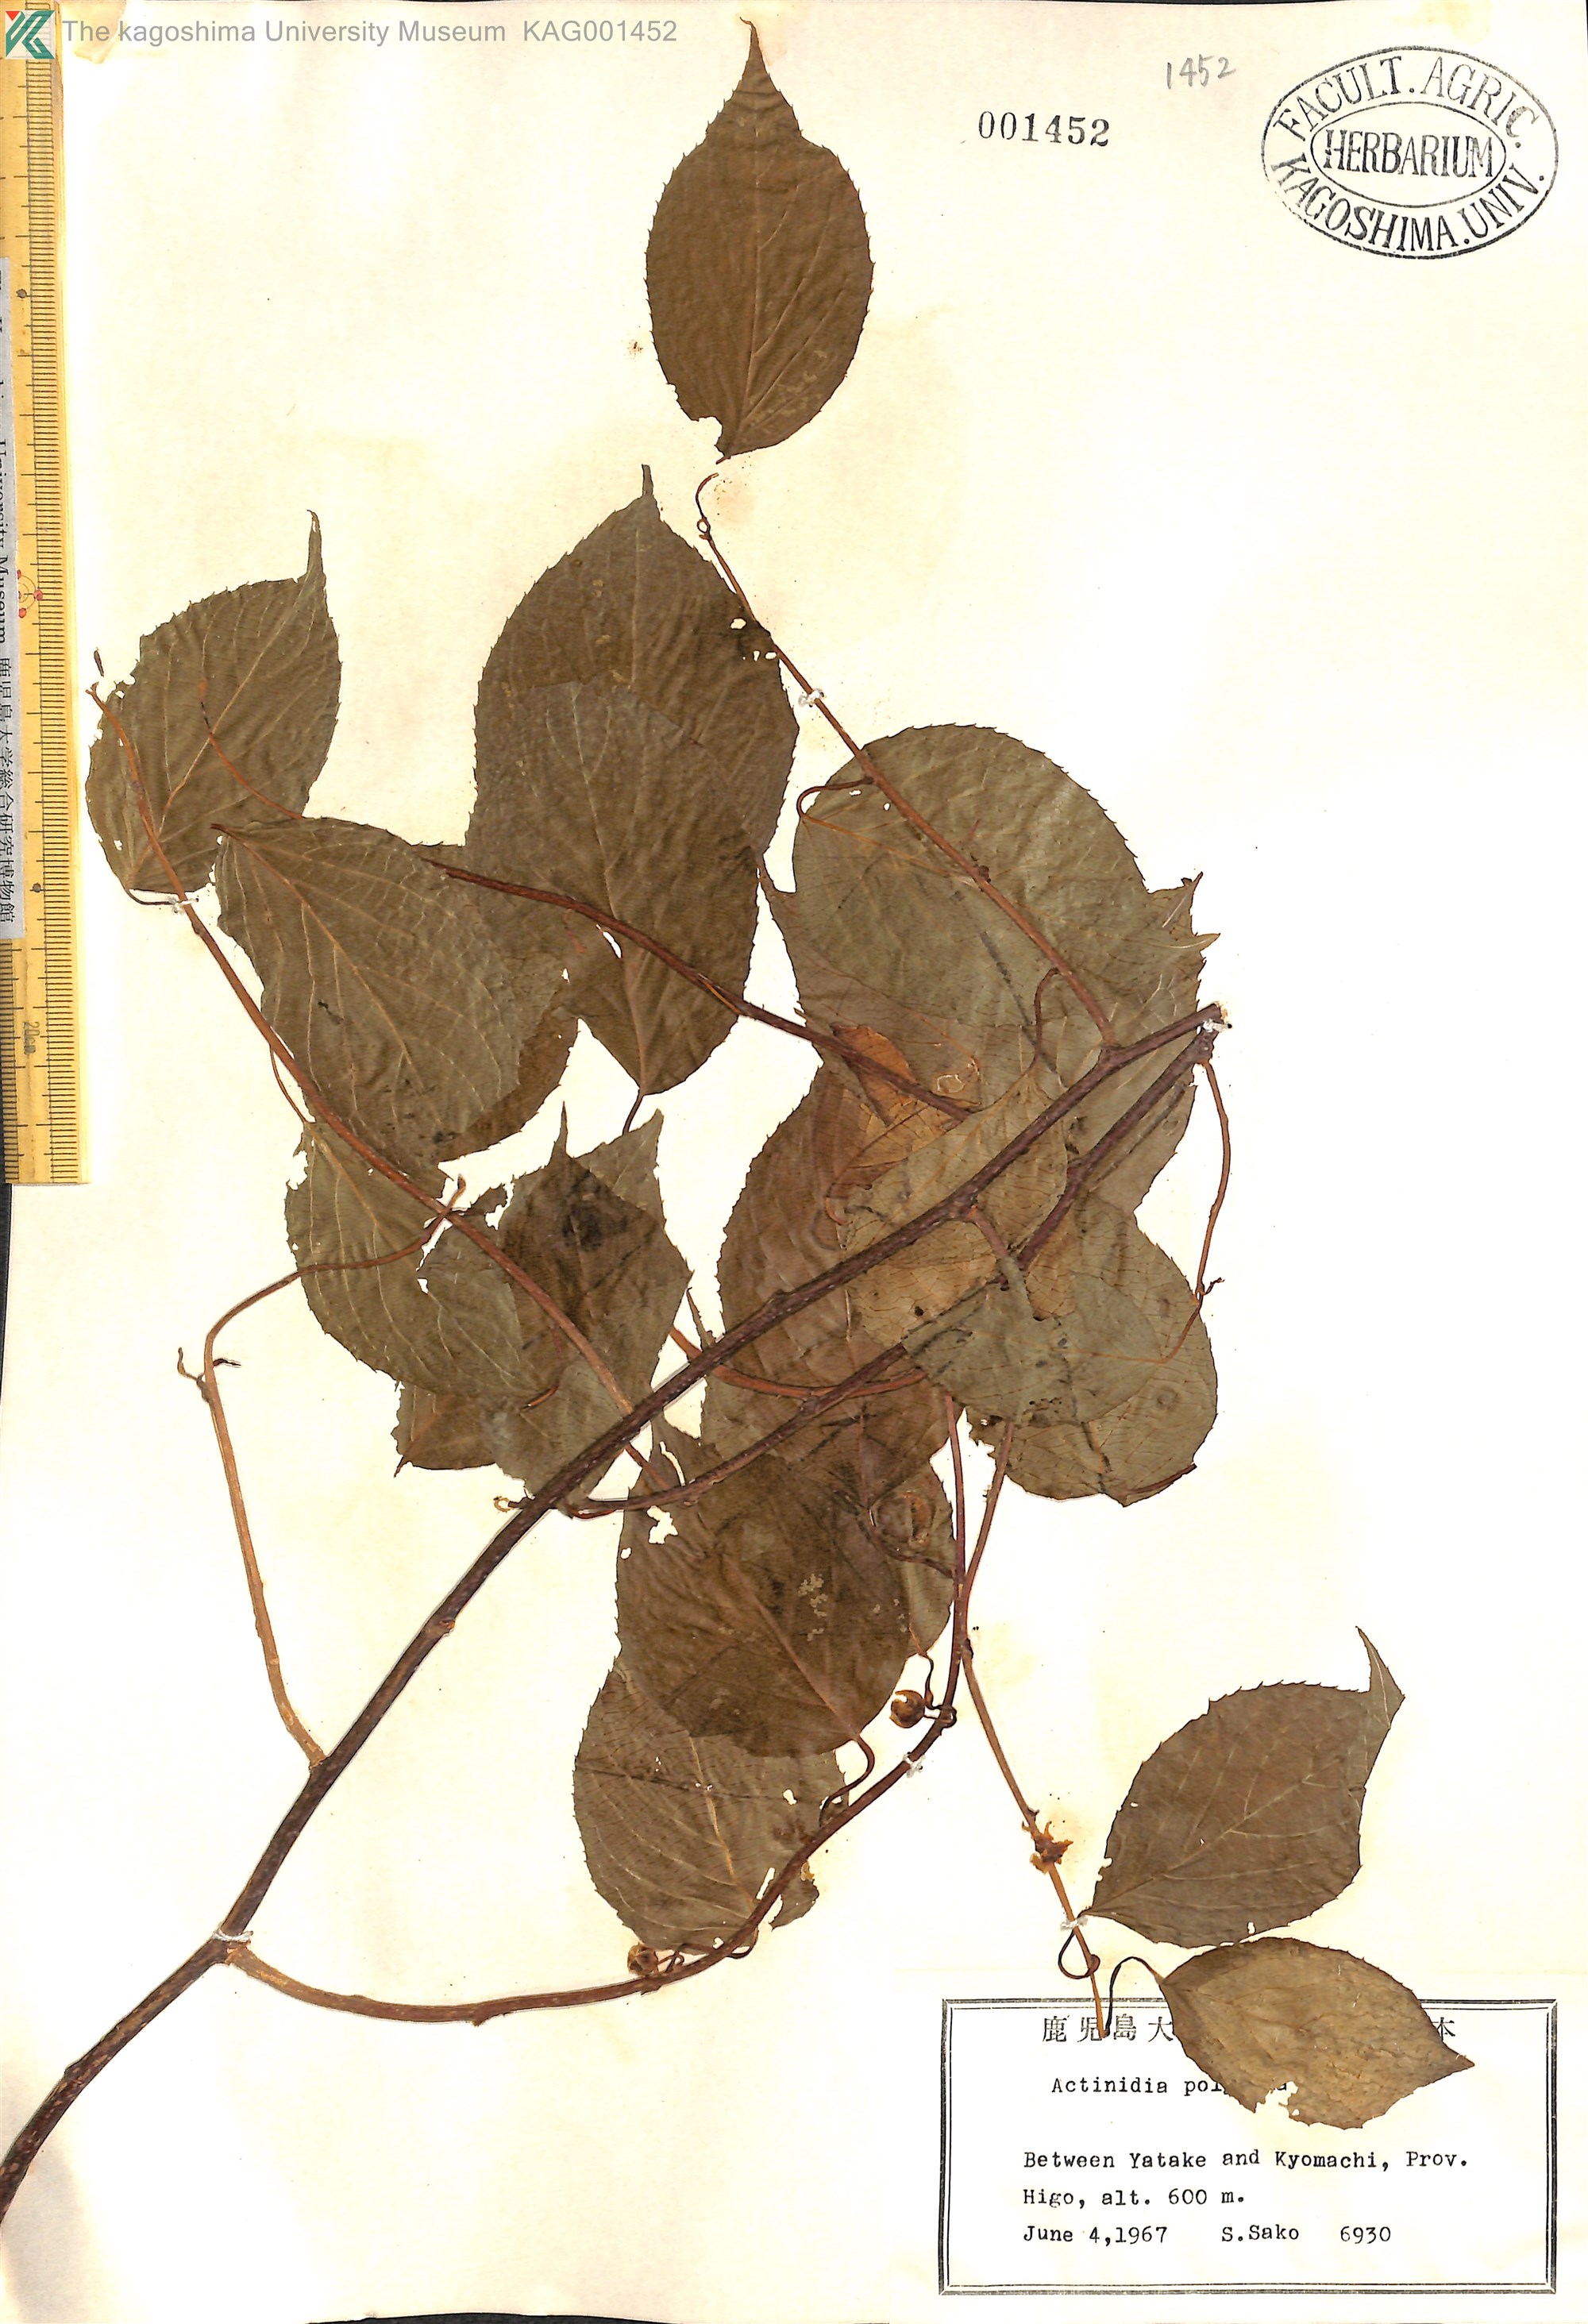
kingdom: Plantae
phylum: Tracheophyta
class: Magnoliopsida
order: Ericales
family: Actinidiaceae
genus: Actinidia
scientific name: Actinidia polygama
